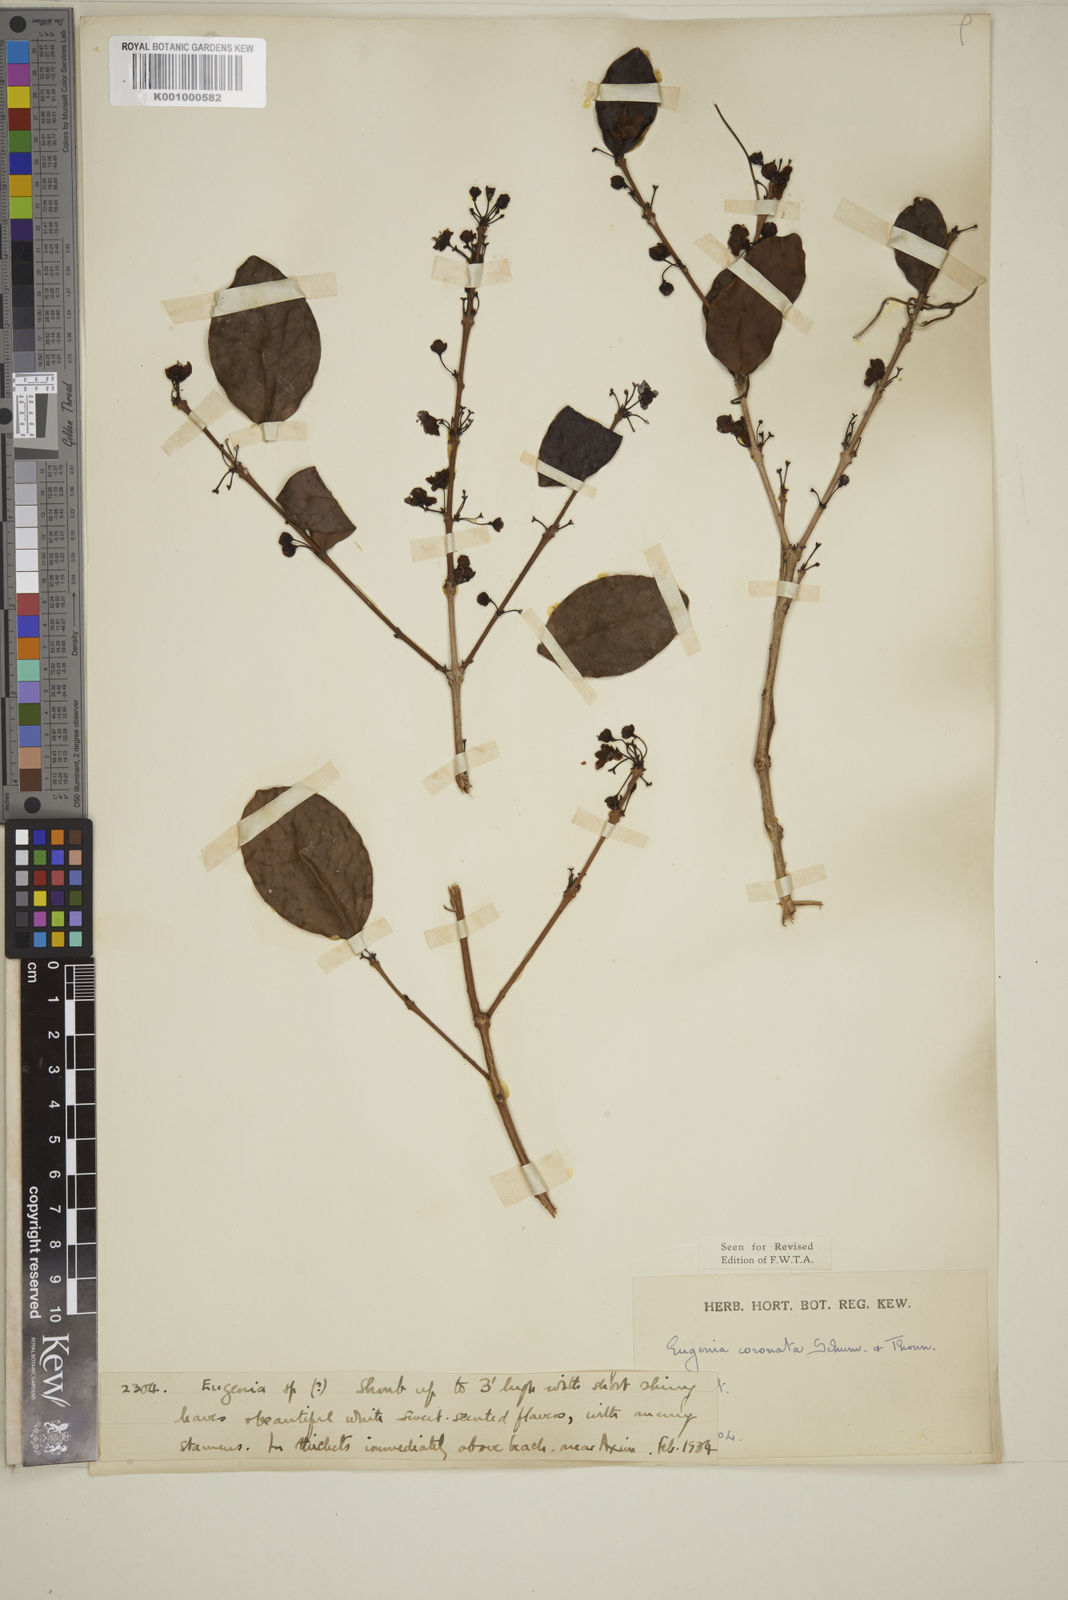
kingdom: Plantae
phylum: Tracheophyta
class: Magnoliopsida
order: Myrtales
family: Myrtaceae
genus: Eugenia
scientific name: Eugenia coronata
